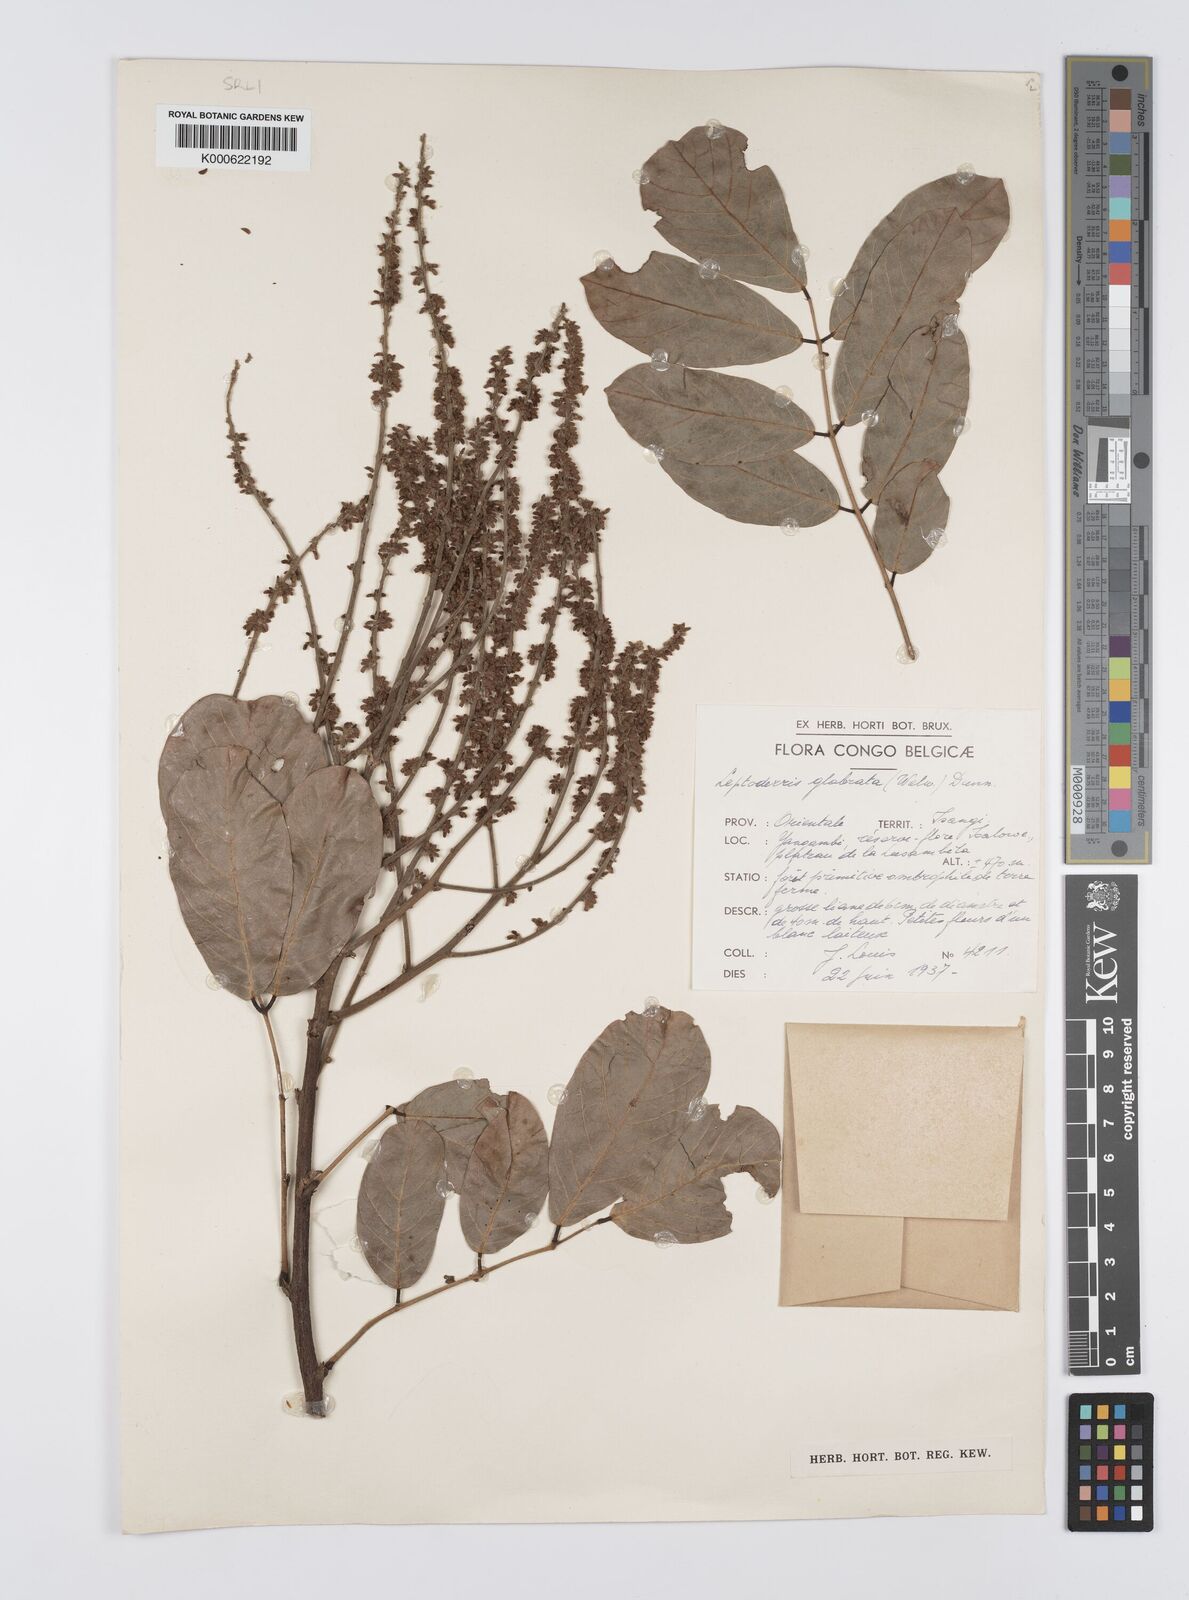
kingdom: Plantae
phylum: Tracheophyta
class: Magnoliopsida
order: Fabales
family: Fabaceae
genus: Leptoderris
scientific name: Leptoderris glabrata
